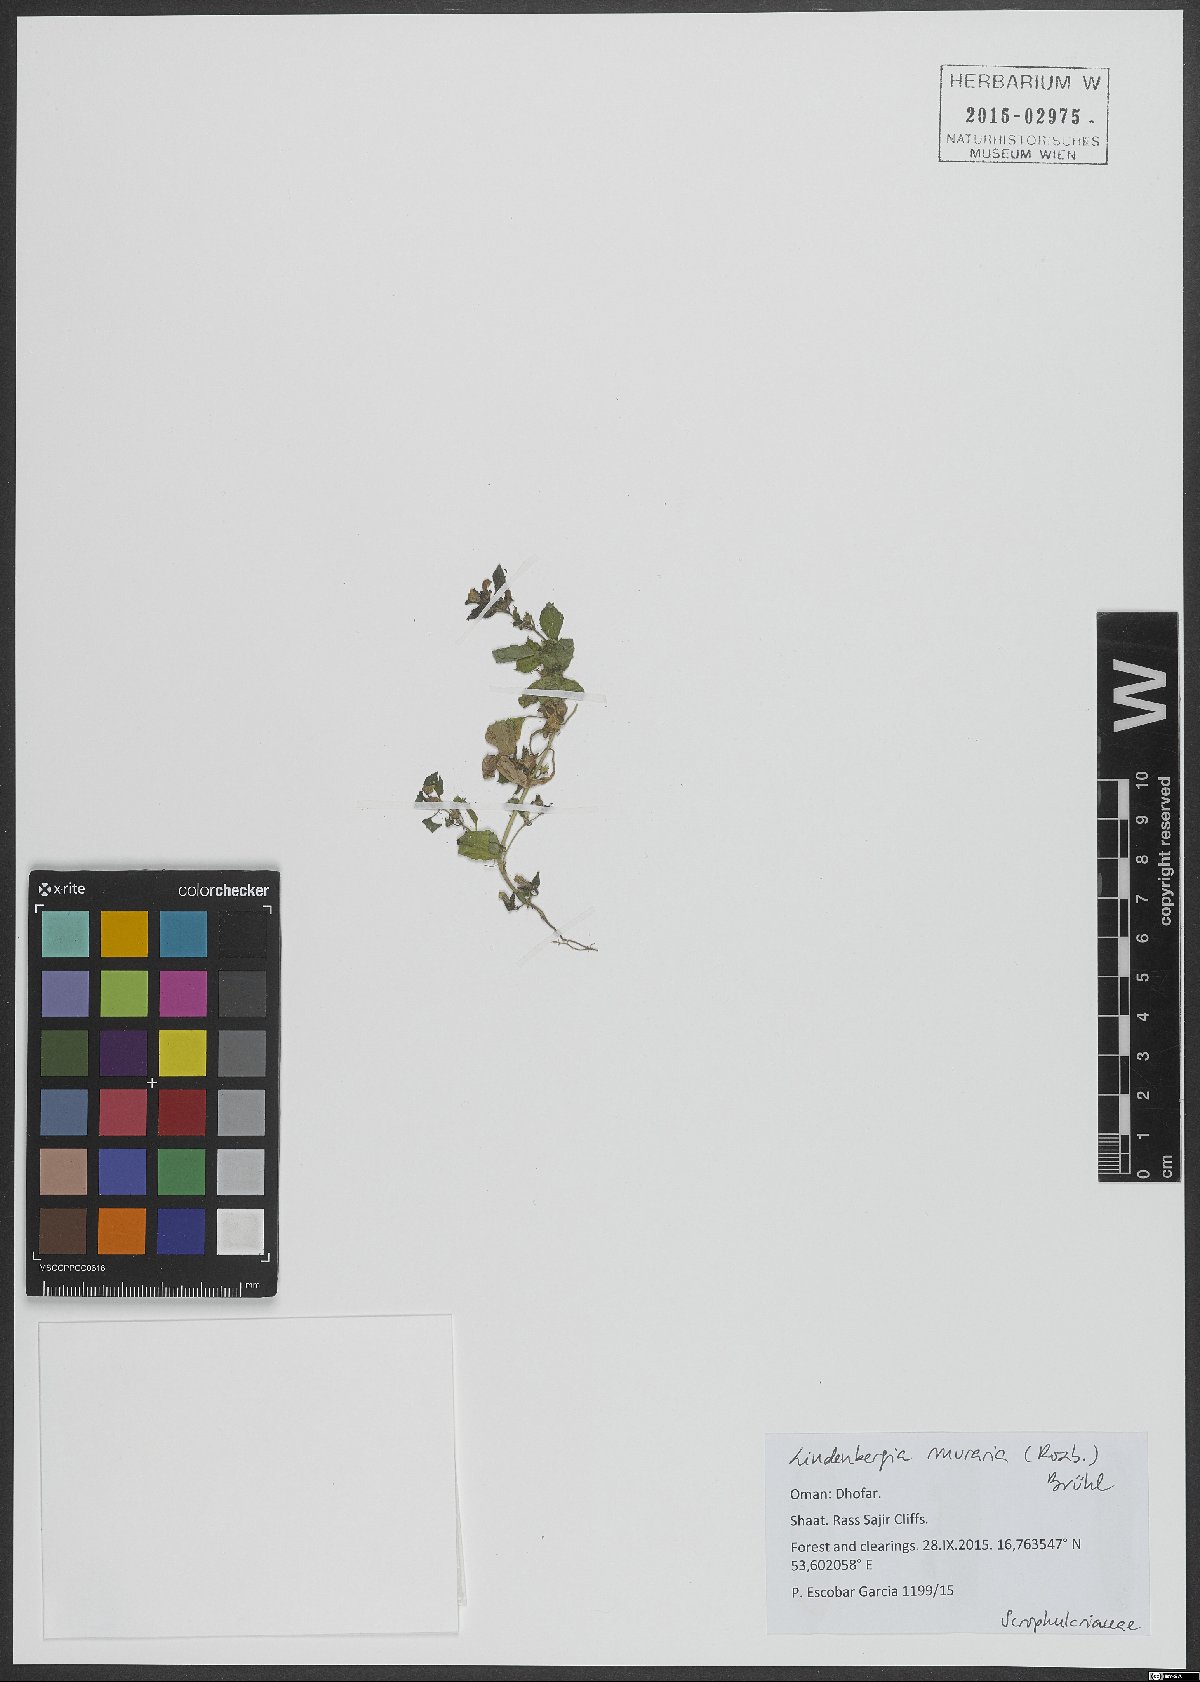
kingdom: Plantae
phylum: Tracheophyta
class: Magnoliopsida
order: Lamiales
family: Orobanchaceae
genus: Lindenbergia
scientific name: Lindenbergia muraria
